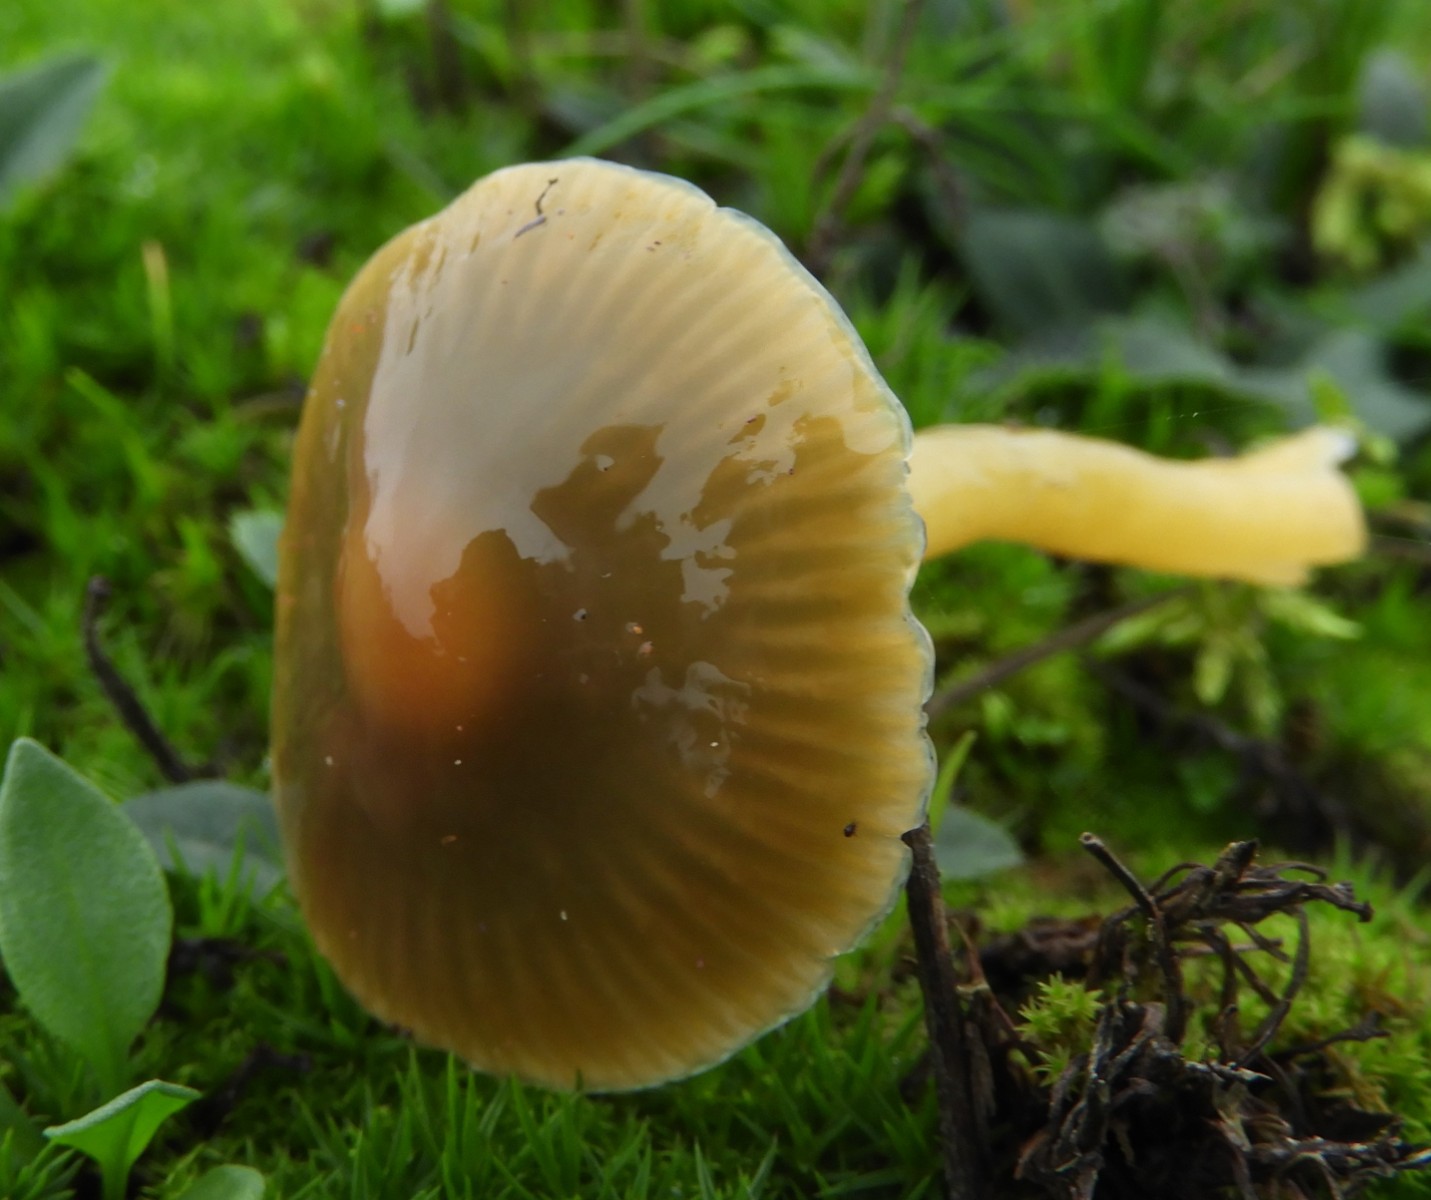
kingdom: Fungi
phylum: Basidiomycota
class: Agaricomycetes
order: Agaricales
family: Hygrophoraceae
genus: Gliophorus
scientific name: Gliophorus psittacinus
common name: papegøje-vokshat
